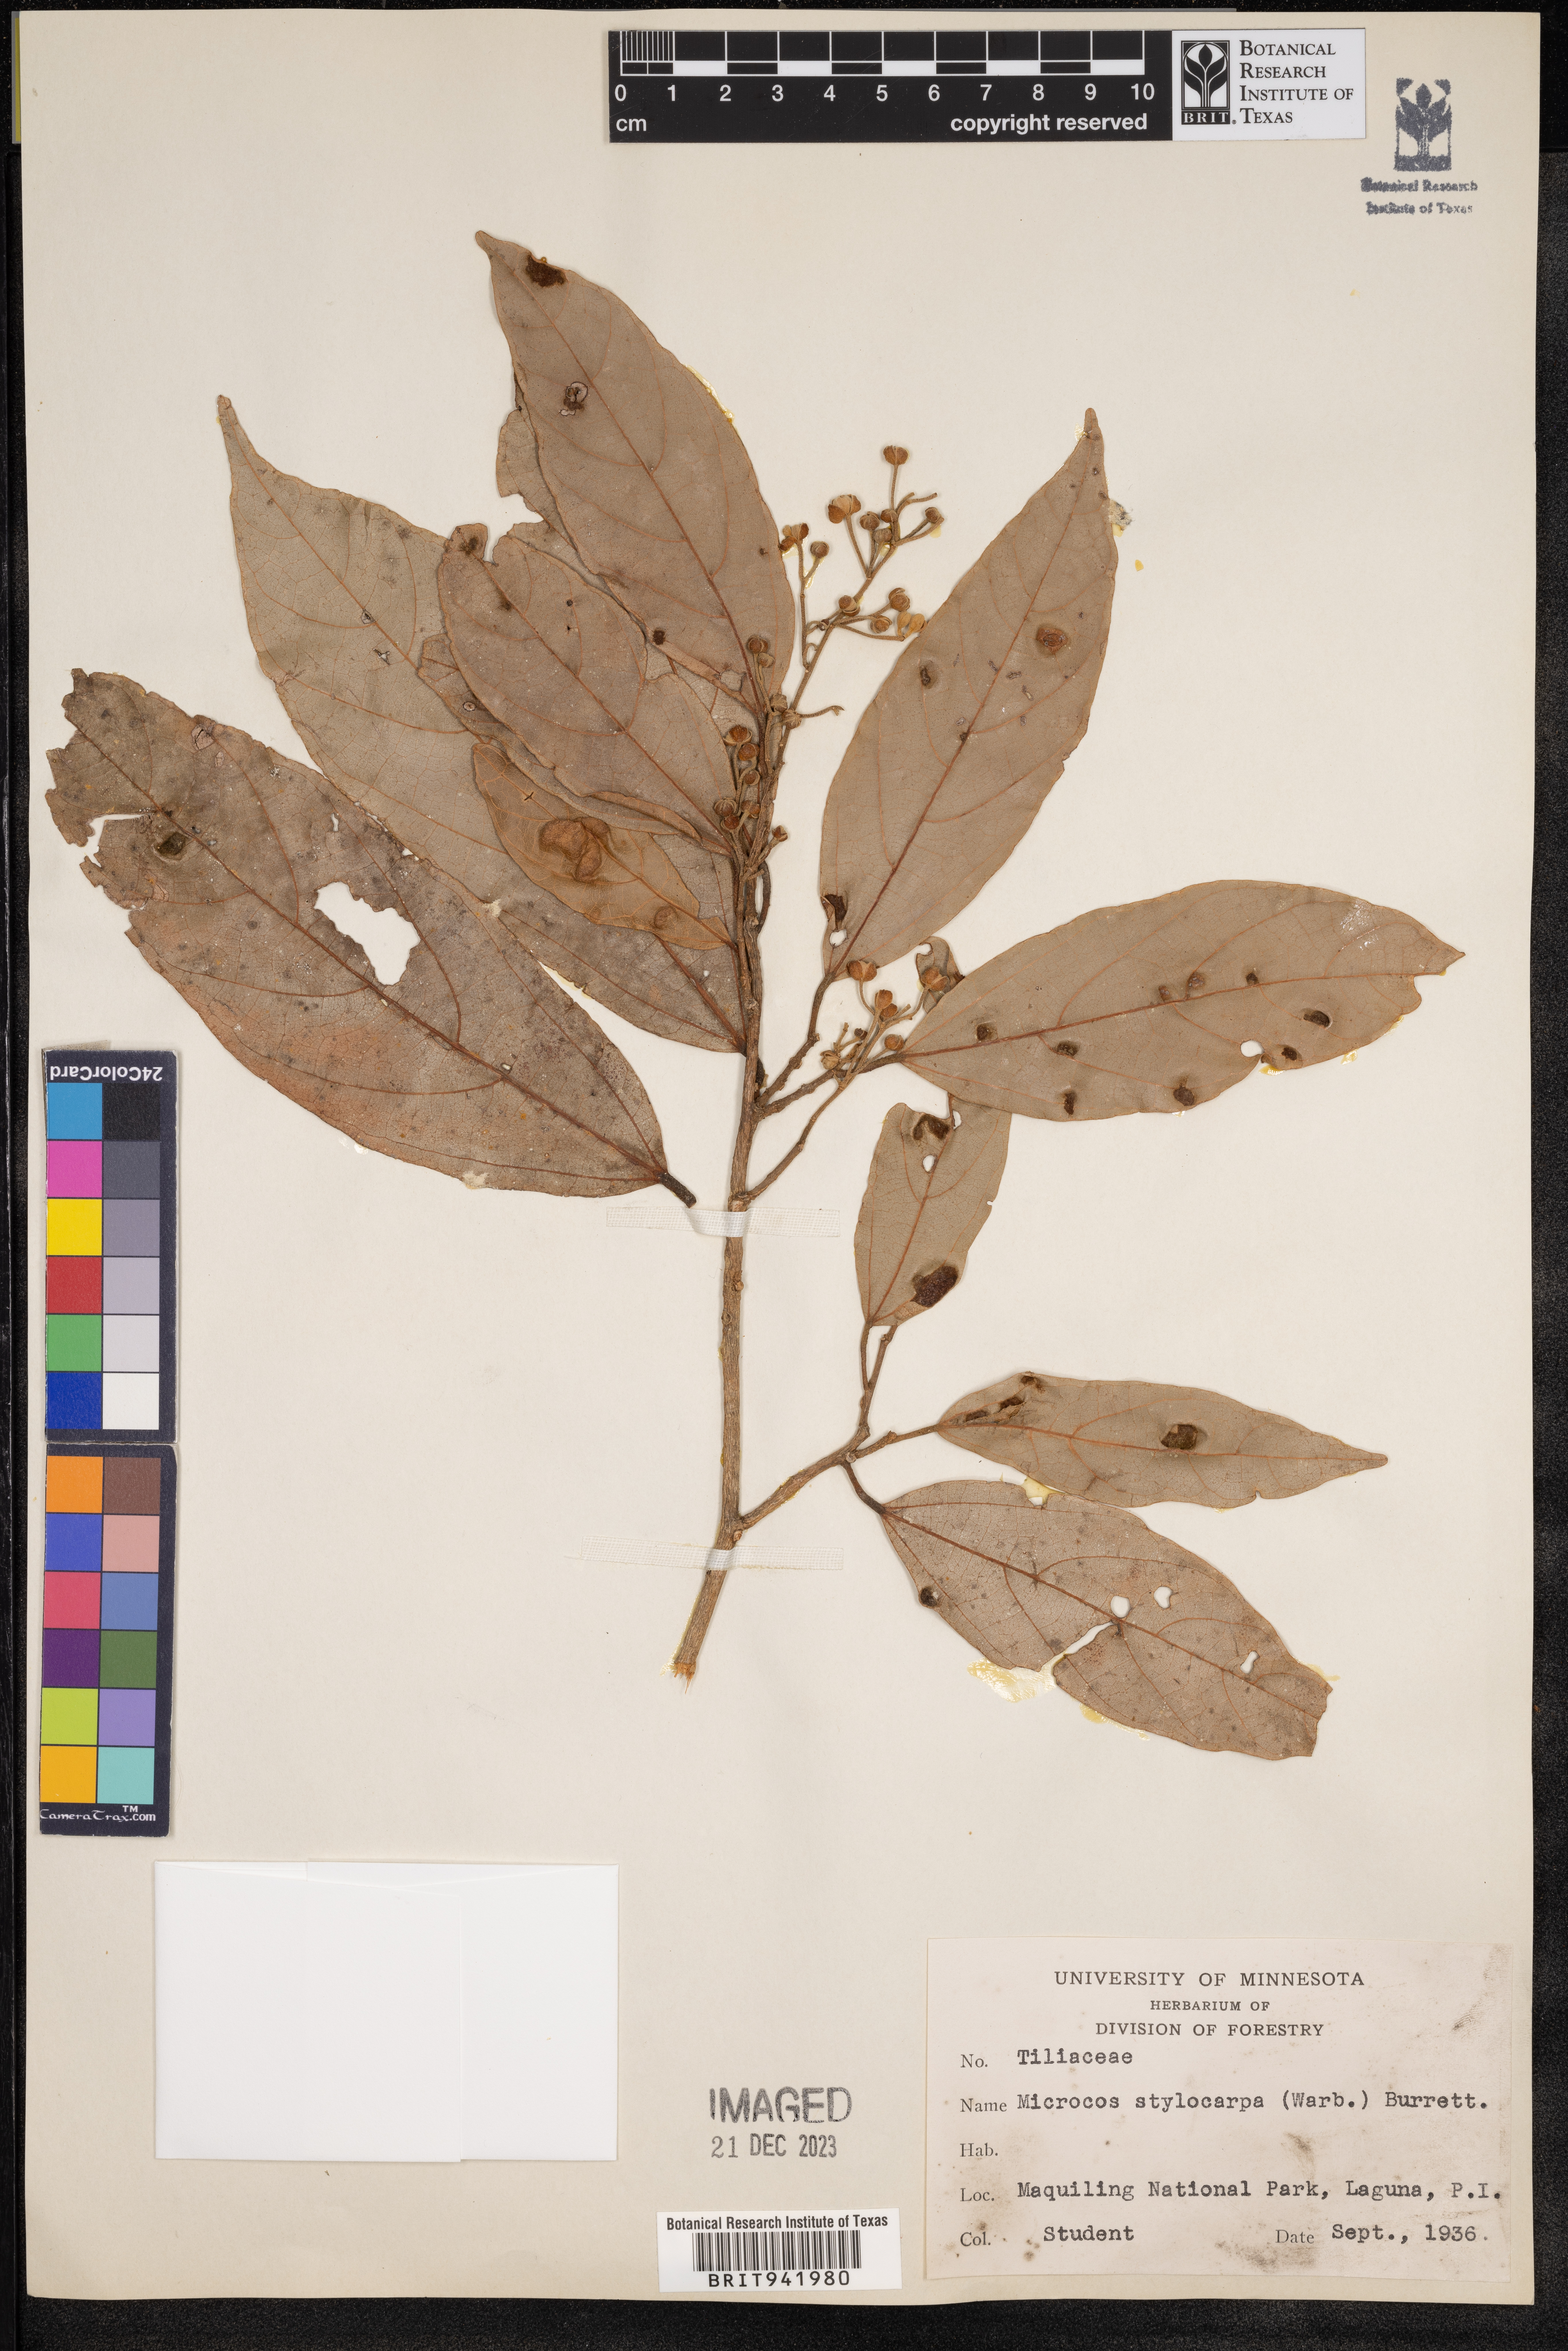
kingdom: Plantae
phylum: Tracheophyta
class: Magnoliopsida
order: Malvales
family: Malvaceae
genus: Microcos
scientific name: Microcos
